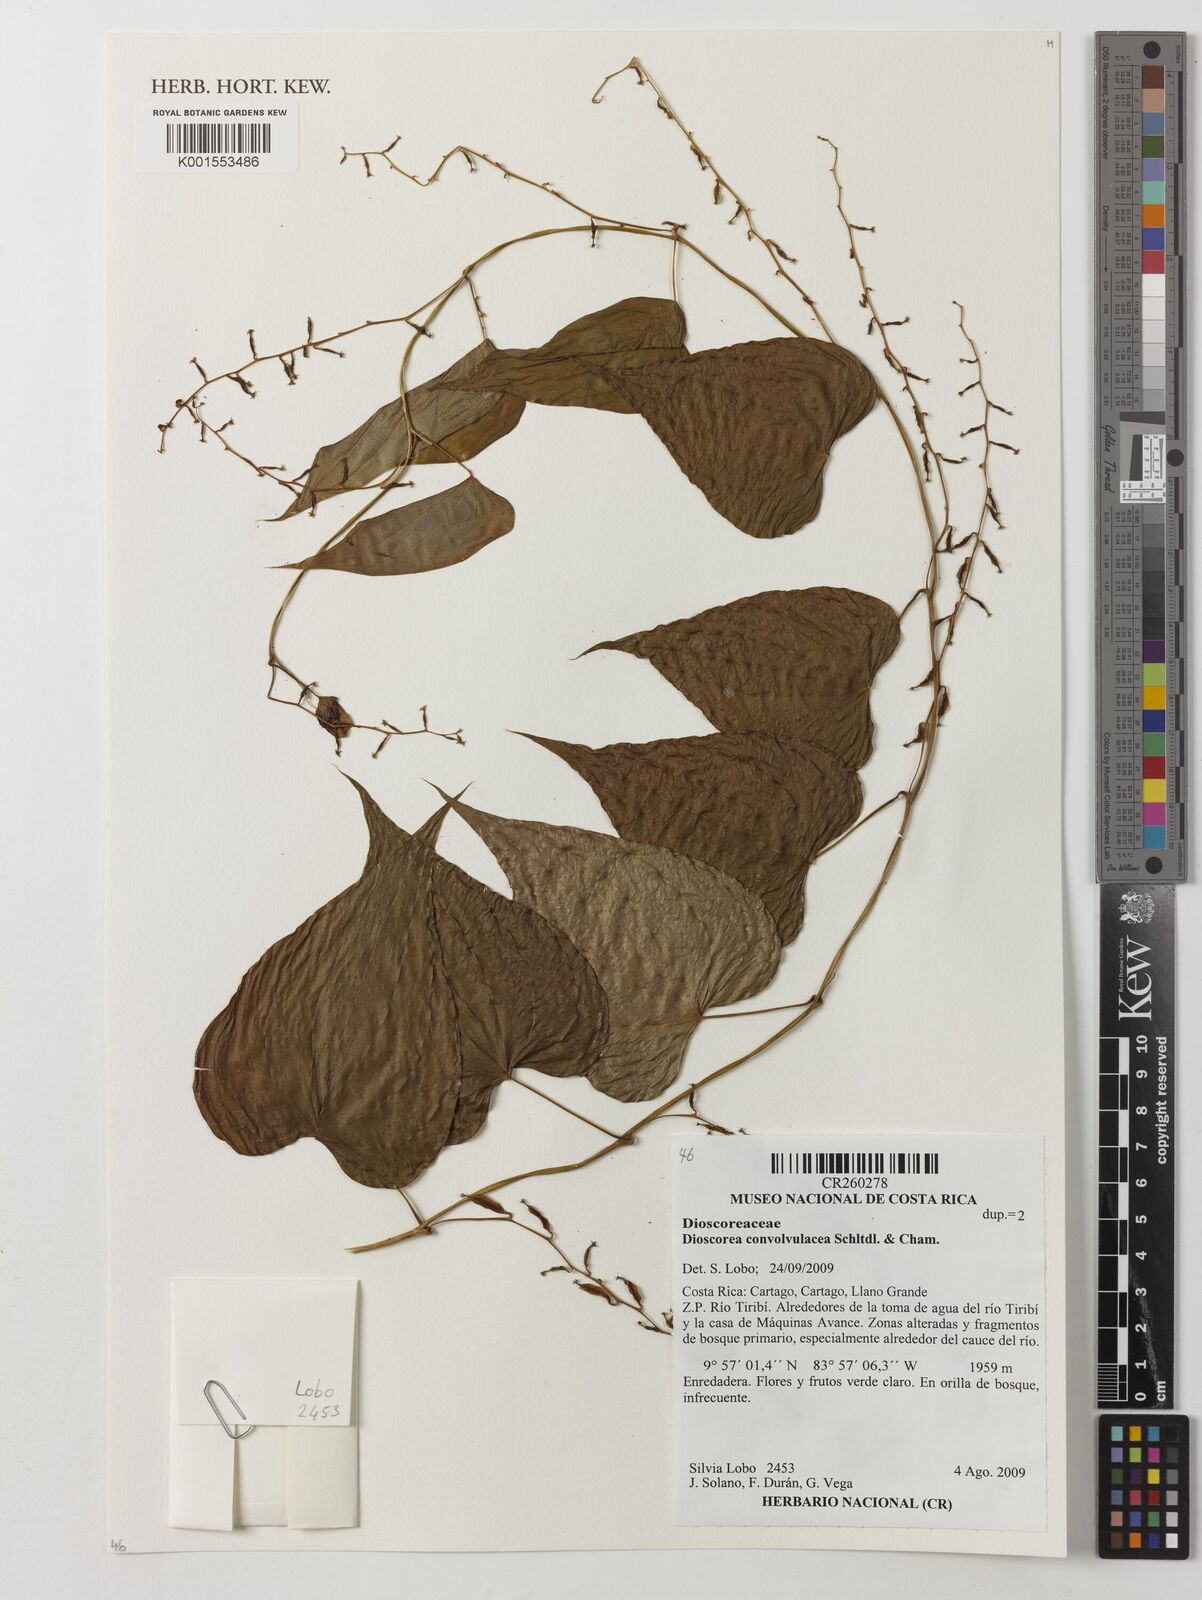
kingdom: Plantae
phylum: Tracheophyta
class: Liliopsida
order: Dioscoreales
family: Dioscoreaceae
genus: Dioscorea
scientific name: Dioscorea convolvulacea
